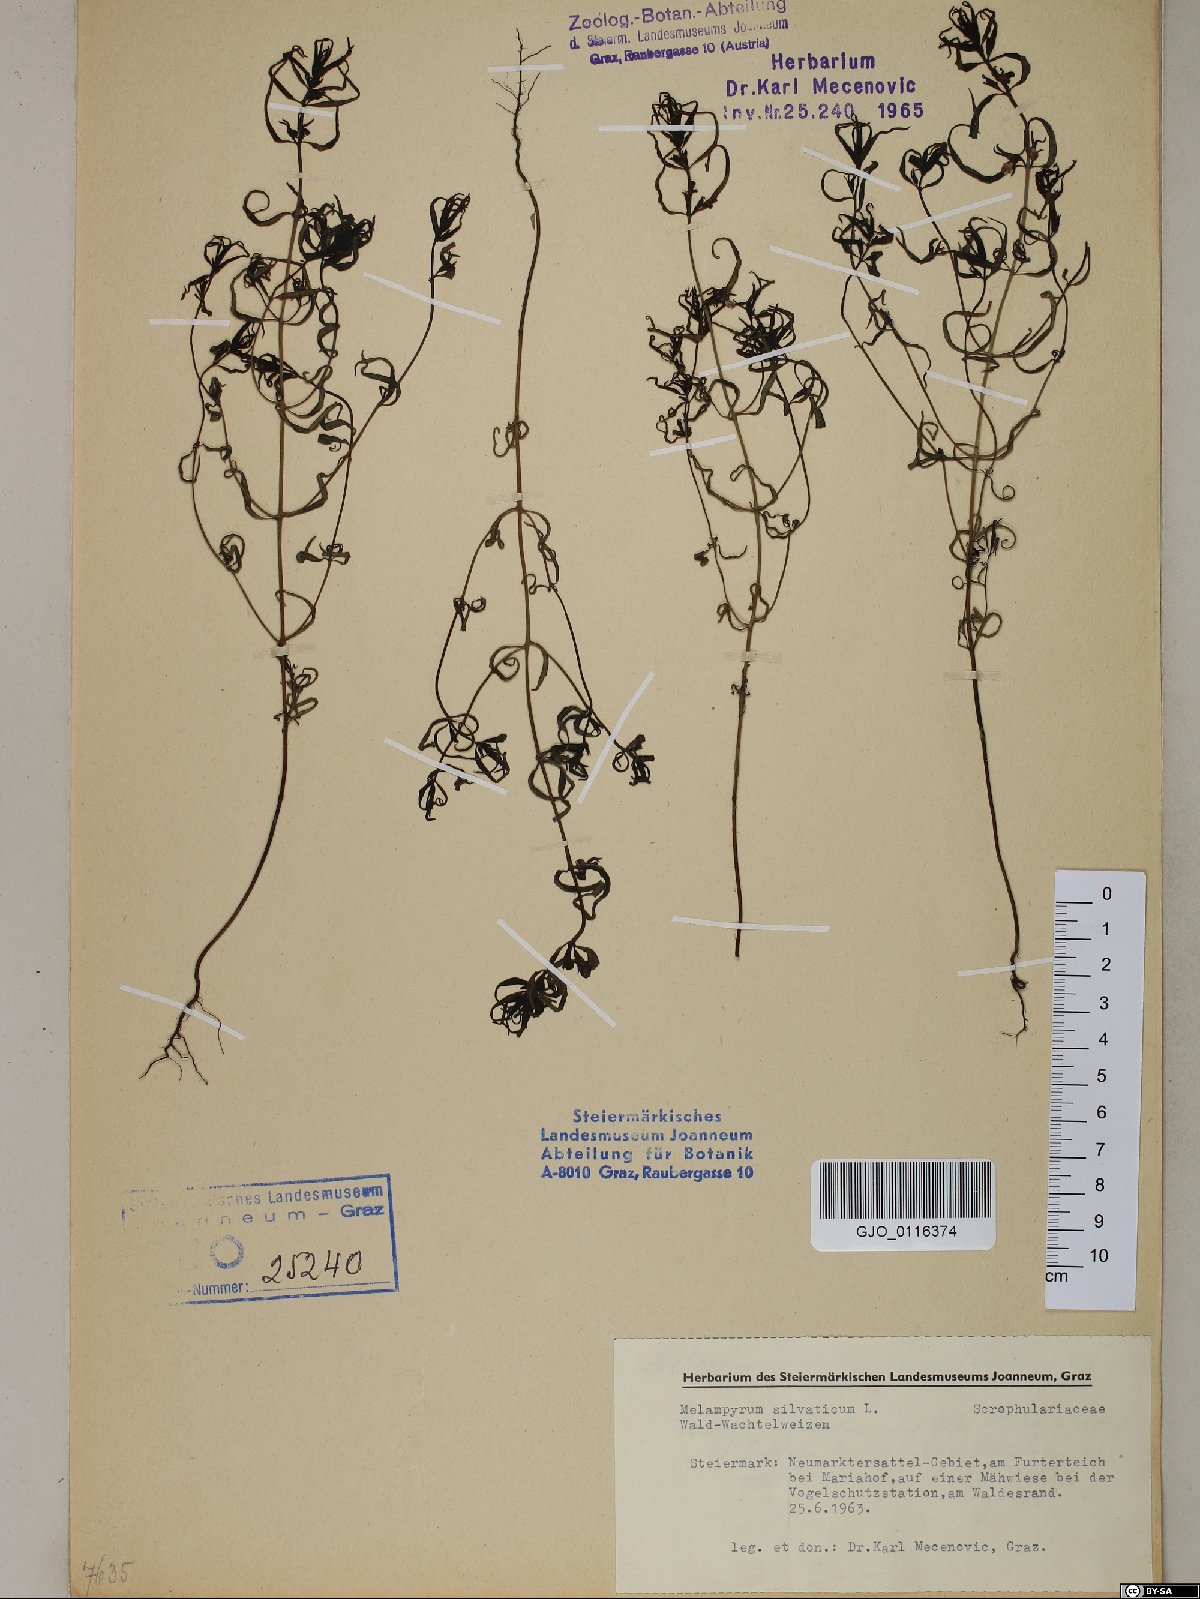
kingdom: Plantae
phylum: Tracheophyta
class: Magnoliopsida
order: Lamiales
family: Orobanchaceae
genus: Melampyrum
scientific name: Melampyrum sylvaticum
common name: Small cow-wheat
